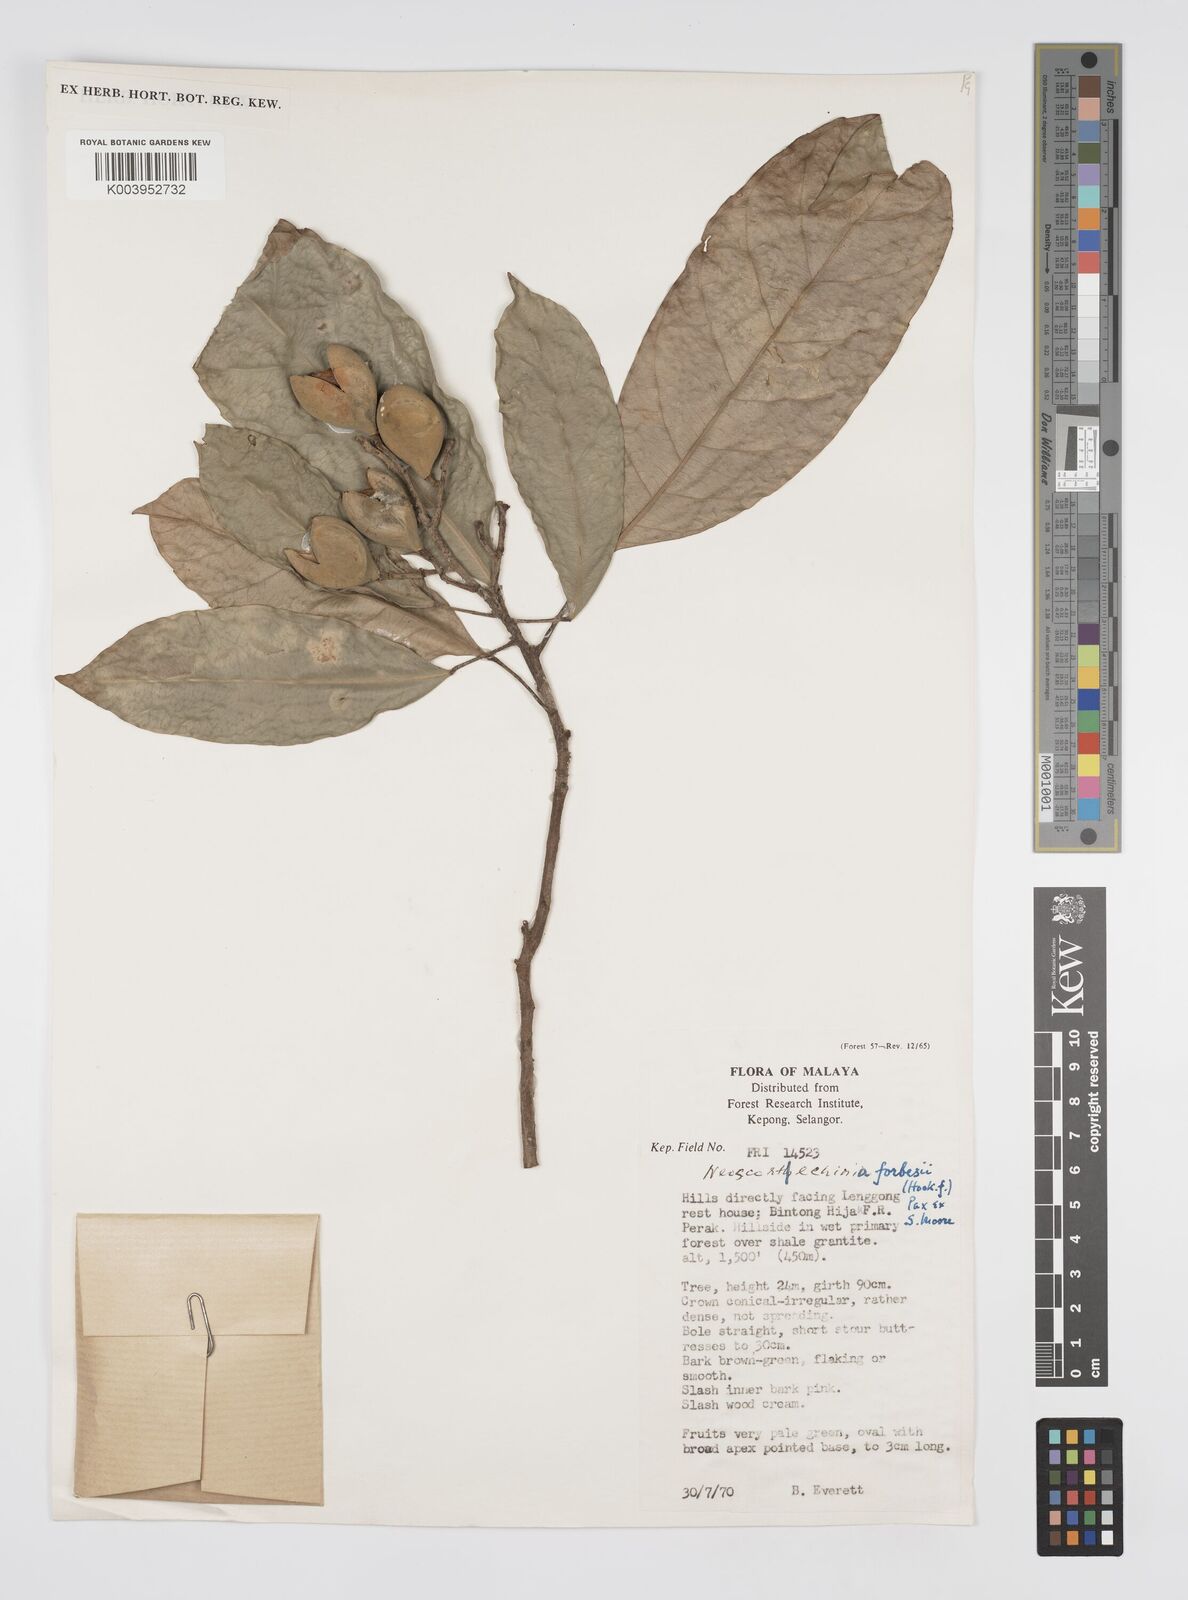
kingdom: Plantae
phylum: Tracheophyta
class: Magnoliopsida
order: Malpighiales
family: Euphorbiaceae
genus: Neoscortechinia
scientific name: Neoscortechinia philippinensis
